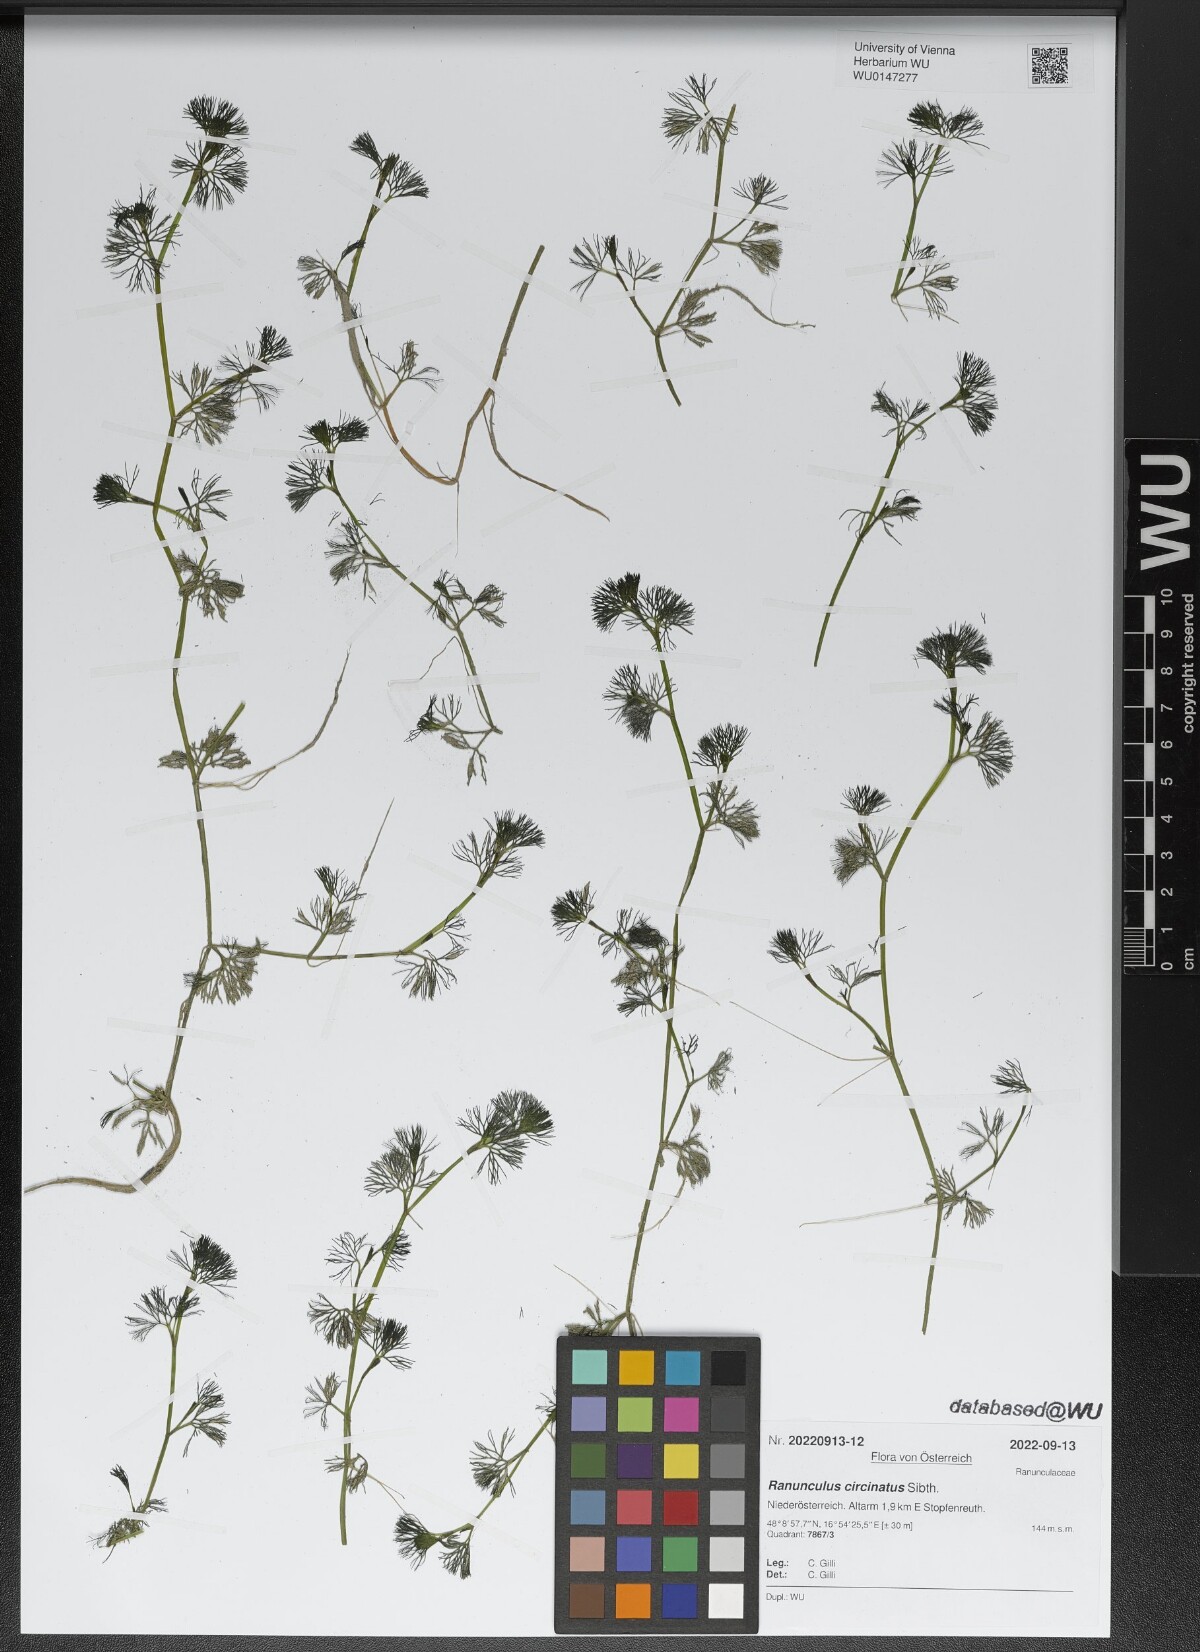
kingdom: Plantae
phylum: Tracheophyta
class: Magnoliopsida
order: Ranunculales
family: Ranunculaceae
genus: Ranunculus
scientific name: Ranunculus circinatus
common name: Fan-leaved water-crowfoot
